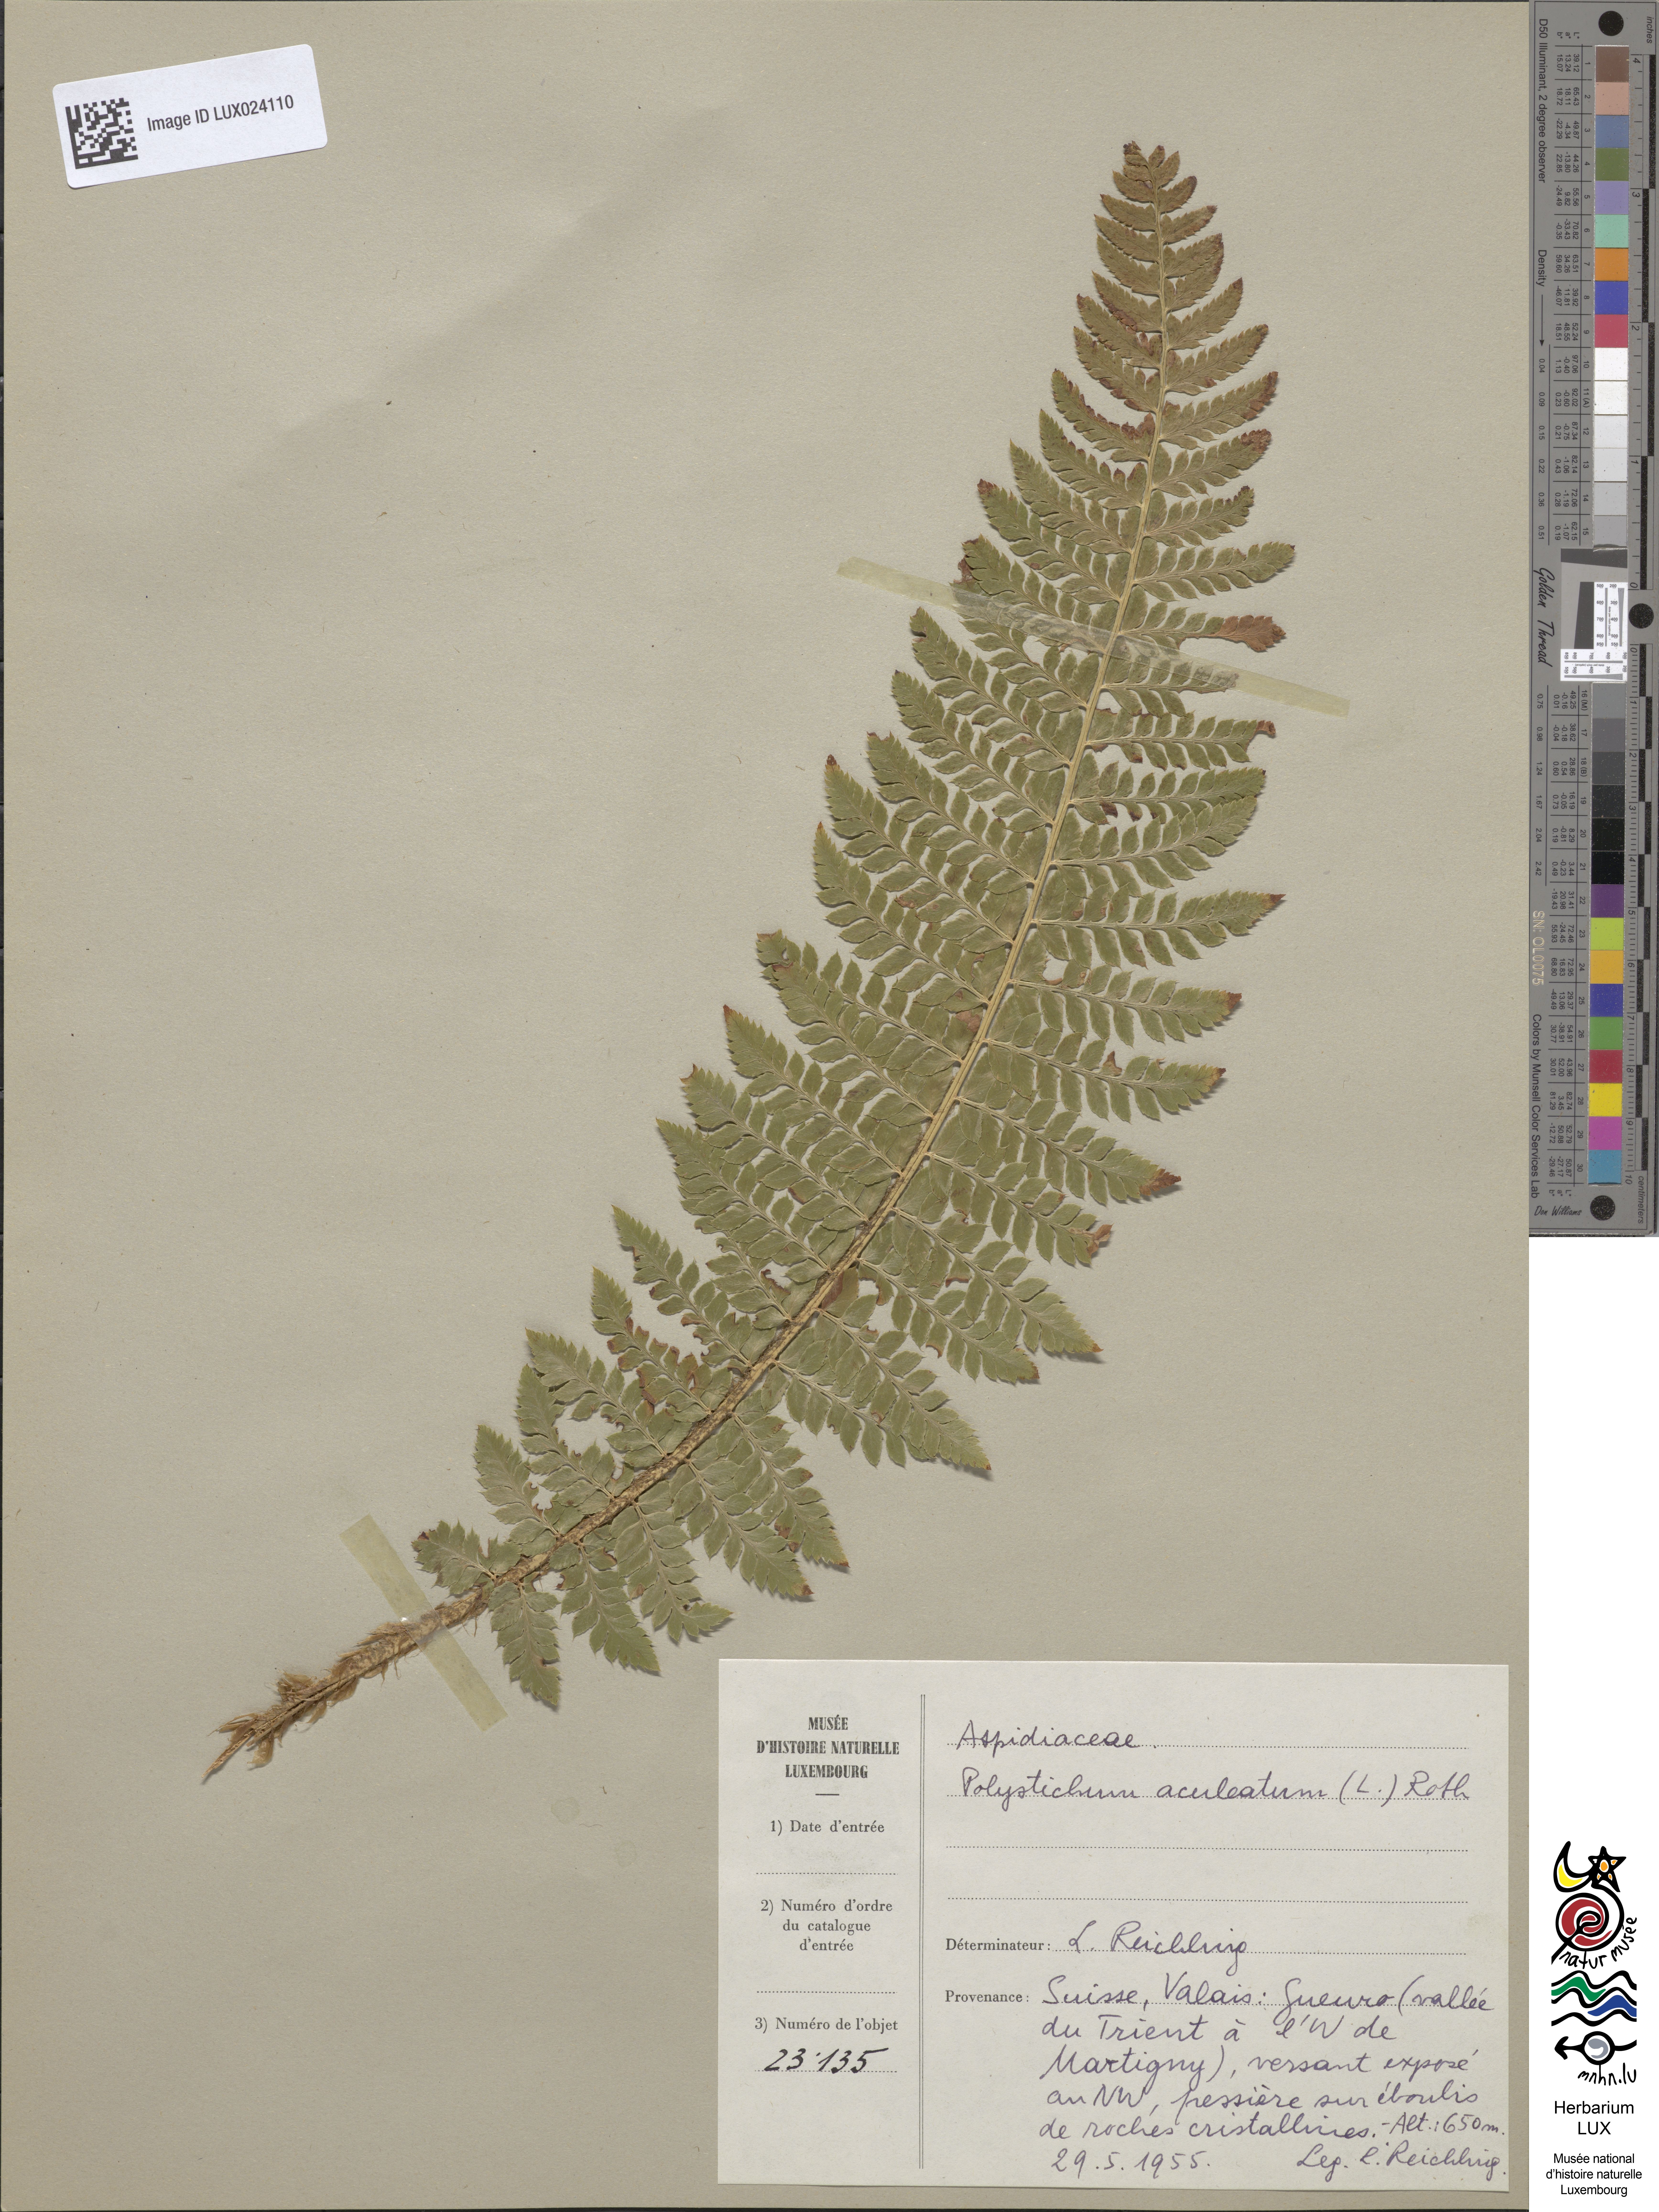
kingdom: Plantae
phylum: Tracheophyta
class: Polypodiopsida
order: Polypodiales
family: Dryopteridaceae
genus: Polystichum
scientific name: Polystichum aculeatum
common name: Hard shield-fern
